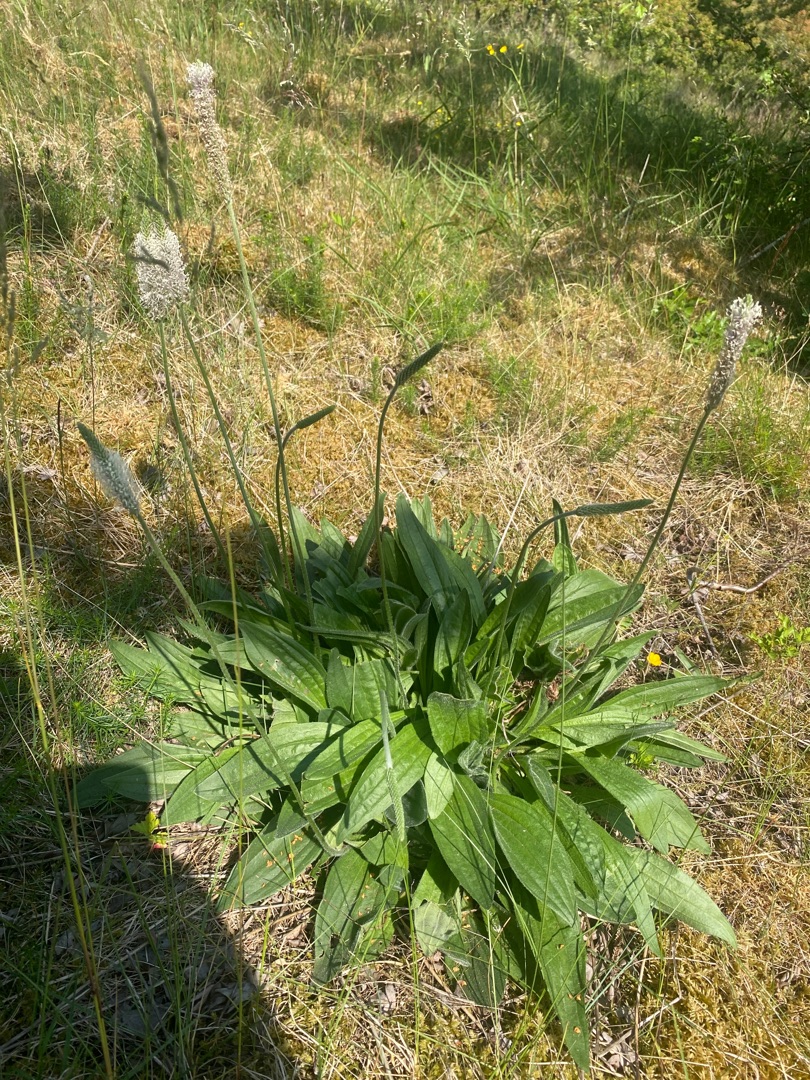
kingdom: Plantae
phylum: Tracheophyta
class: Magnoliopsida
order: Lamiales
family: Plantaginaceae
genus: Plantago
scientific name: Plantago media
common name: Dunet vejbred
